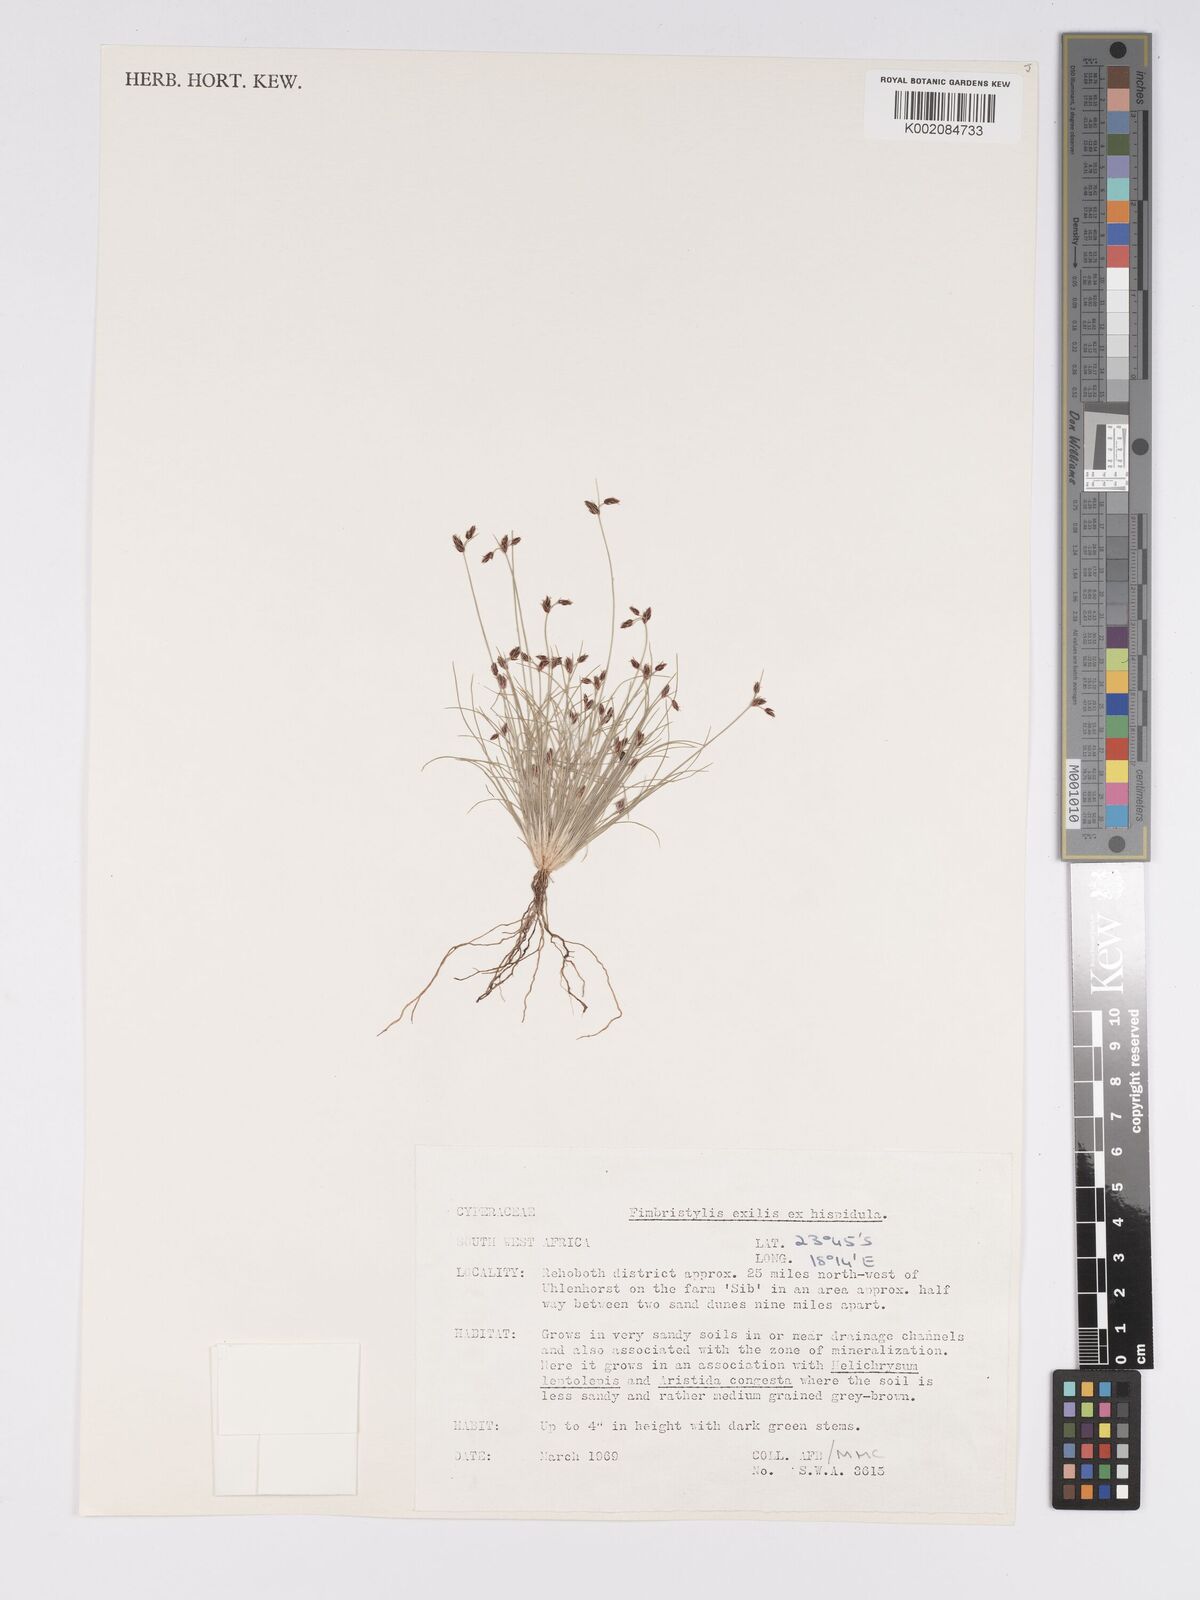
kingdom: Plantae
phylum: Tracheophyta
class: Liliopsida
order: Poales
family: Cyperaceae
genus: Bulbostylis
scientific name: Bulbostylis hispidula
